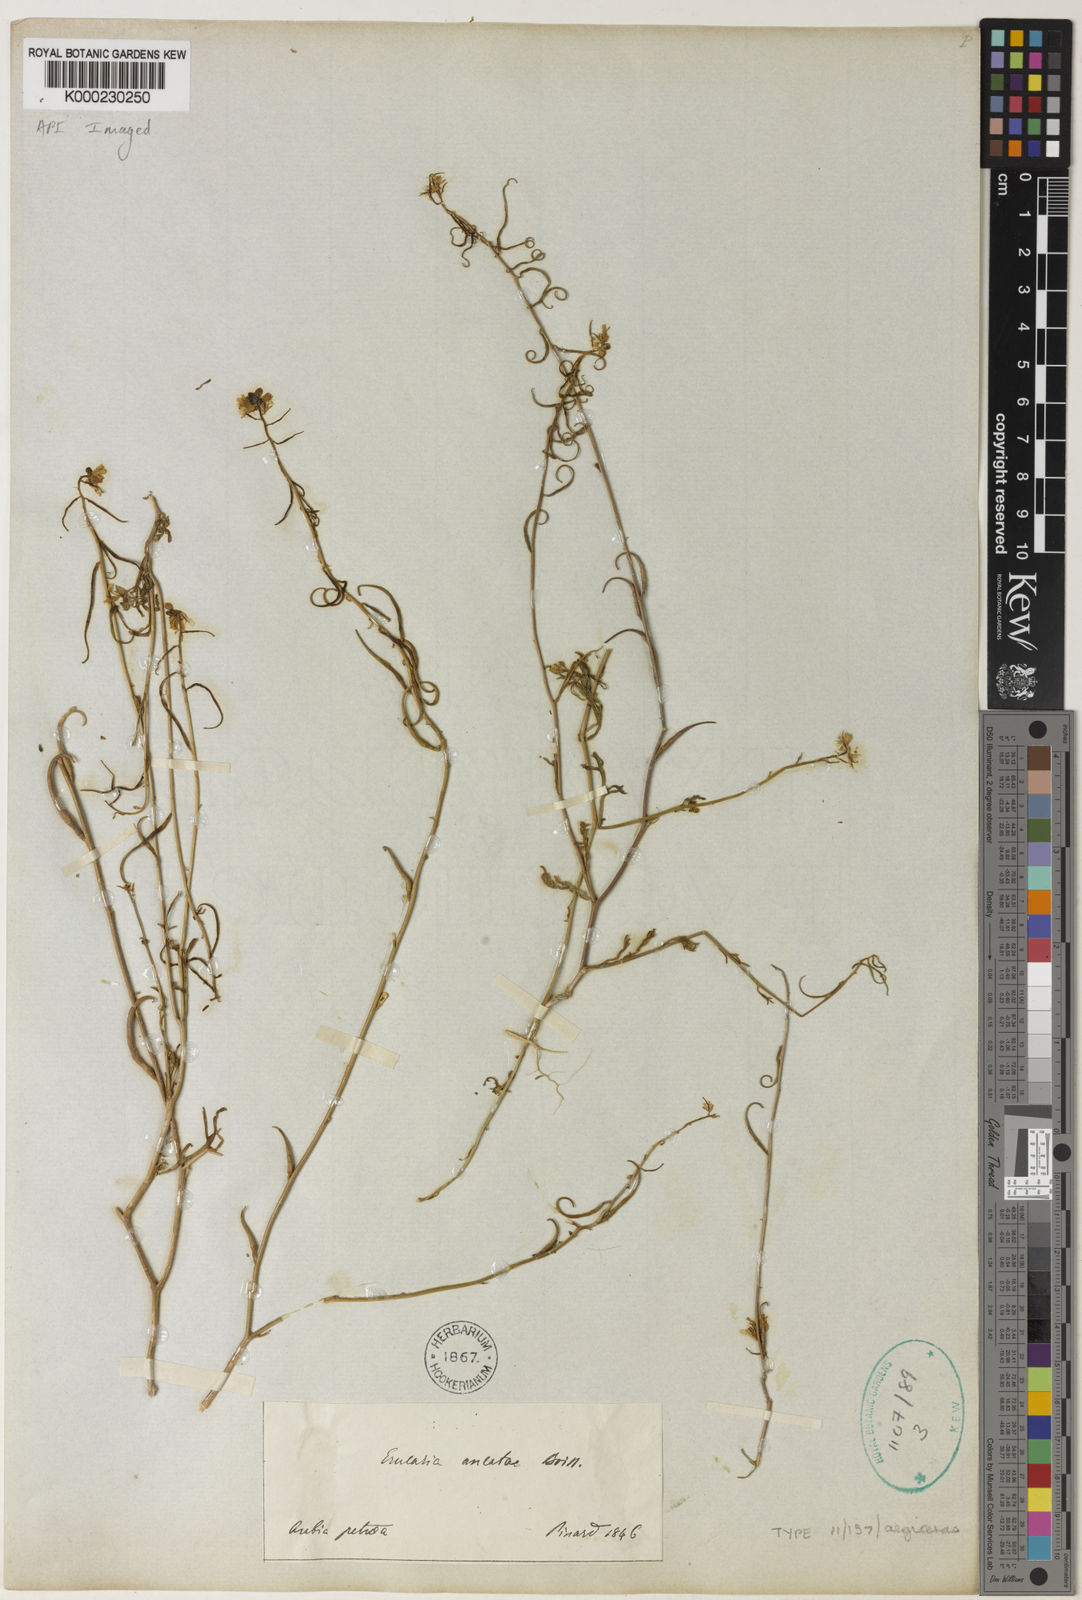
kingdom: Plantae
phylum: Tracheophyta
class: Magnoliopsida
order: Brassicales
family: Brassicaceae
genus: Erucaria
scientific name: Erucaria uncata
